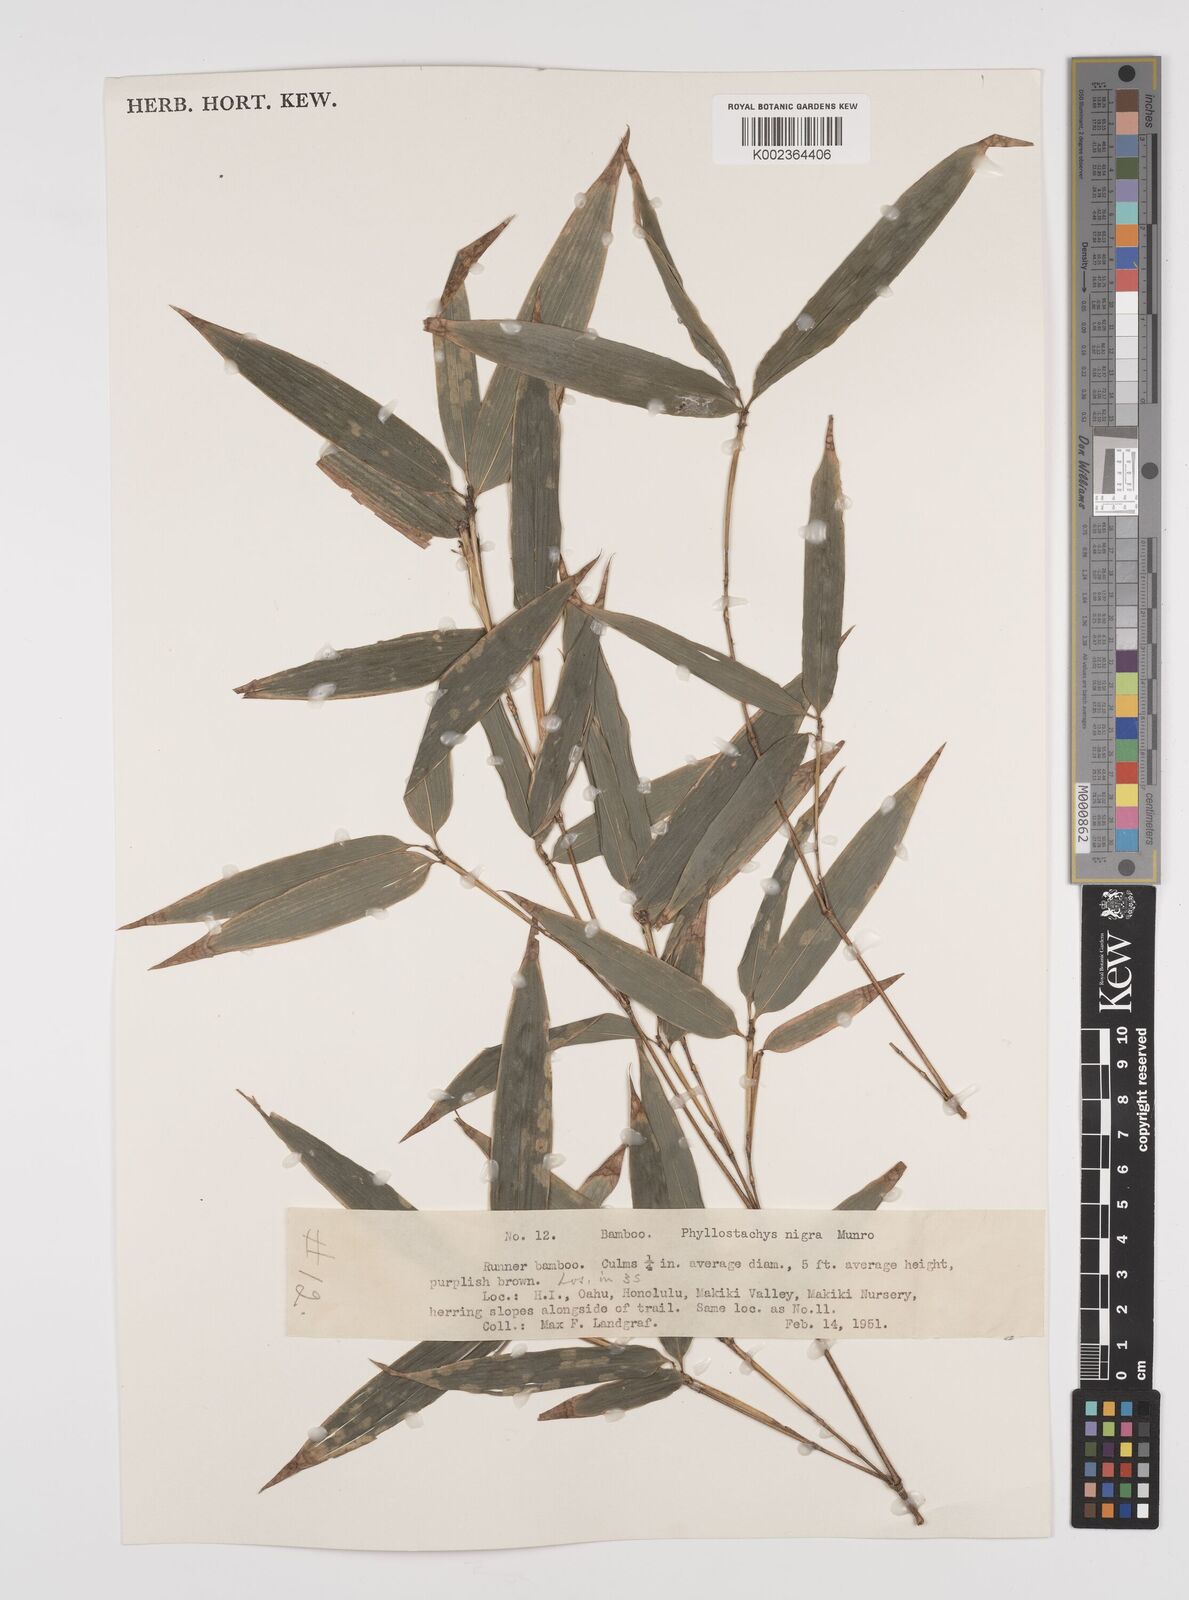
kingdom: Plantae
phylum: Tracheophyta
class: Liliopsida
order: Poales
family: Poaceae
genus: Phyllostachys
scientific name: Phyllostachys nigra
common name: Black bamboo
